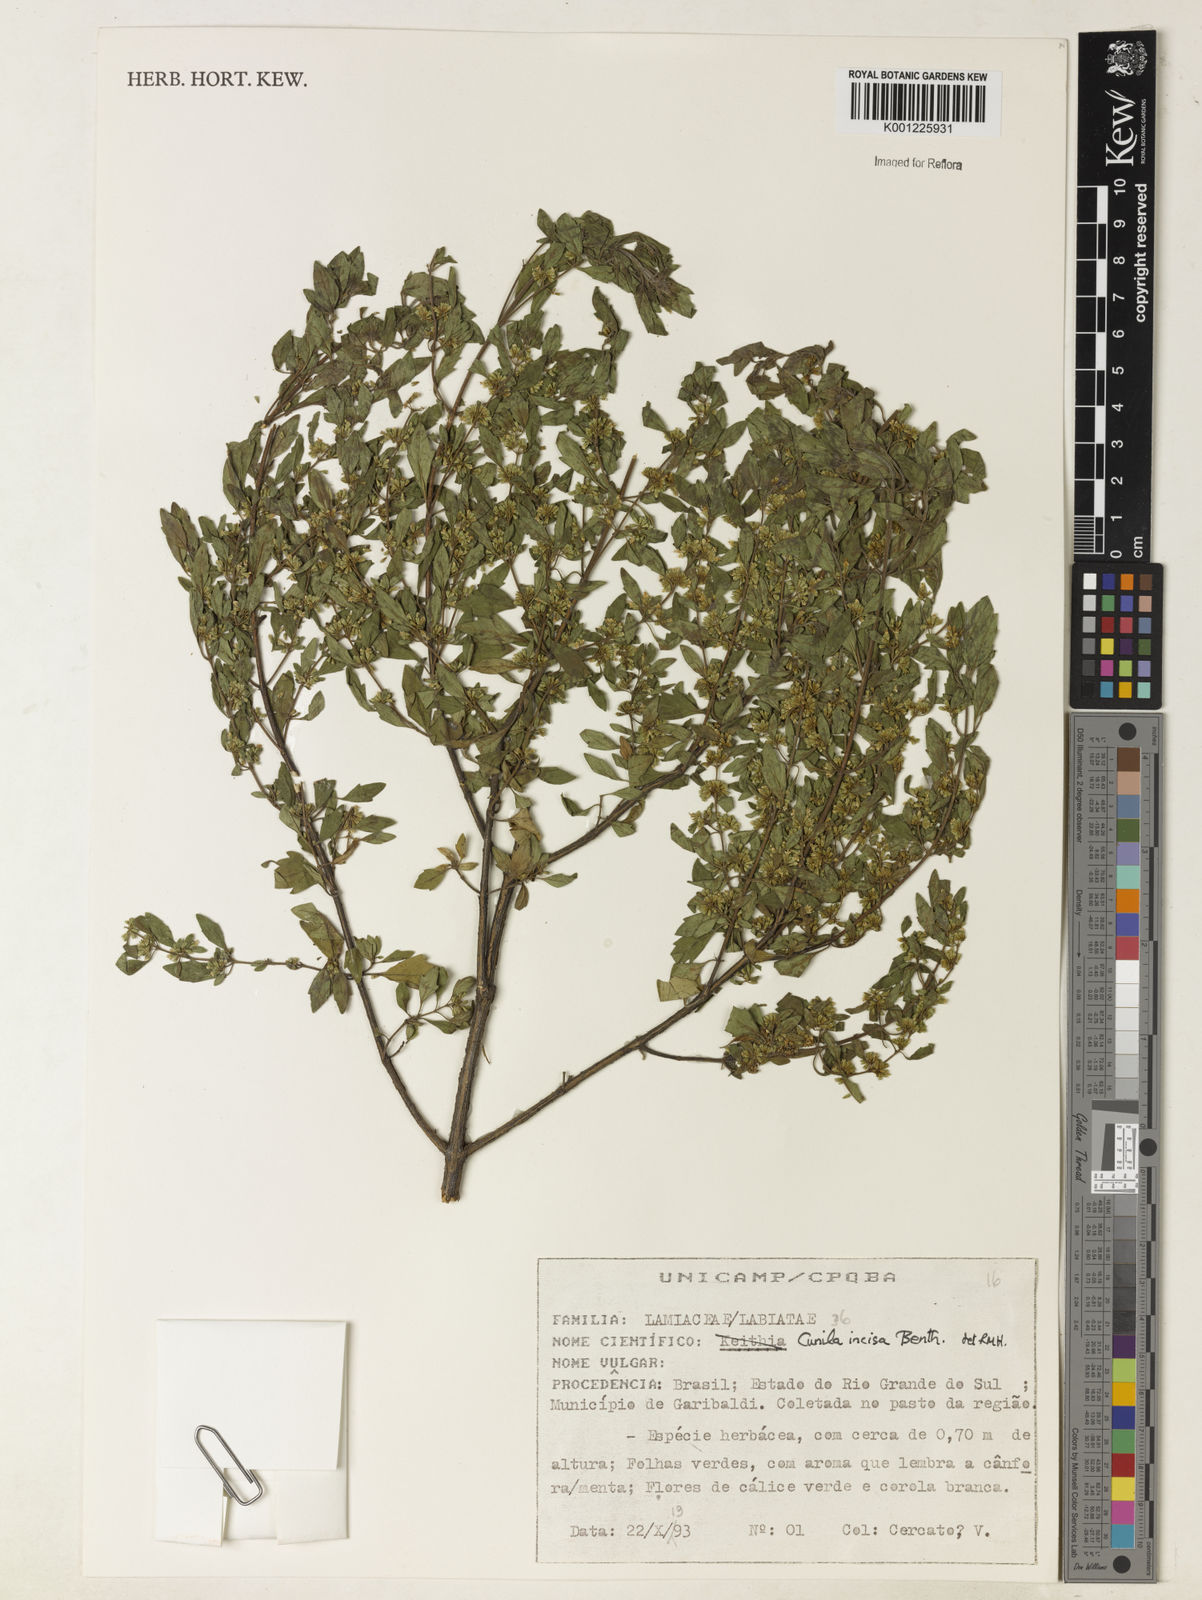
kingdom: Plantae
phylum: Tracheophyta
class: Magnoliopsida
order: Lamiales
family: Lamiaceae
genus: Cunila
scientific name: Cunila incisa
